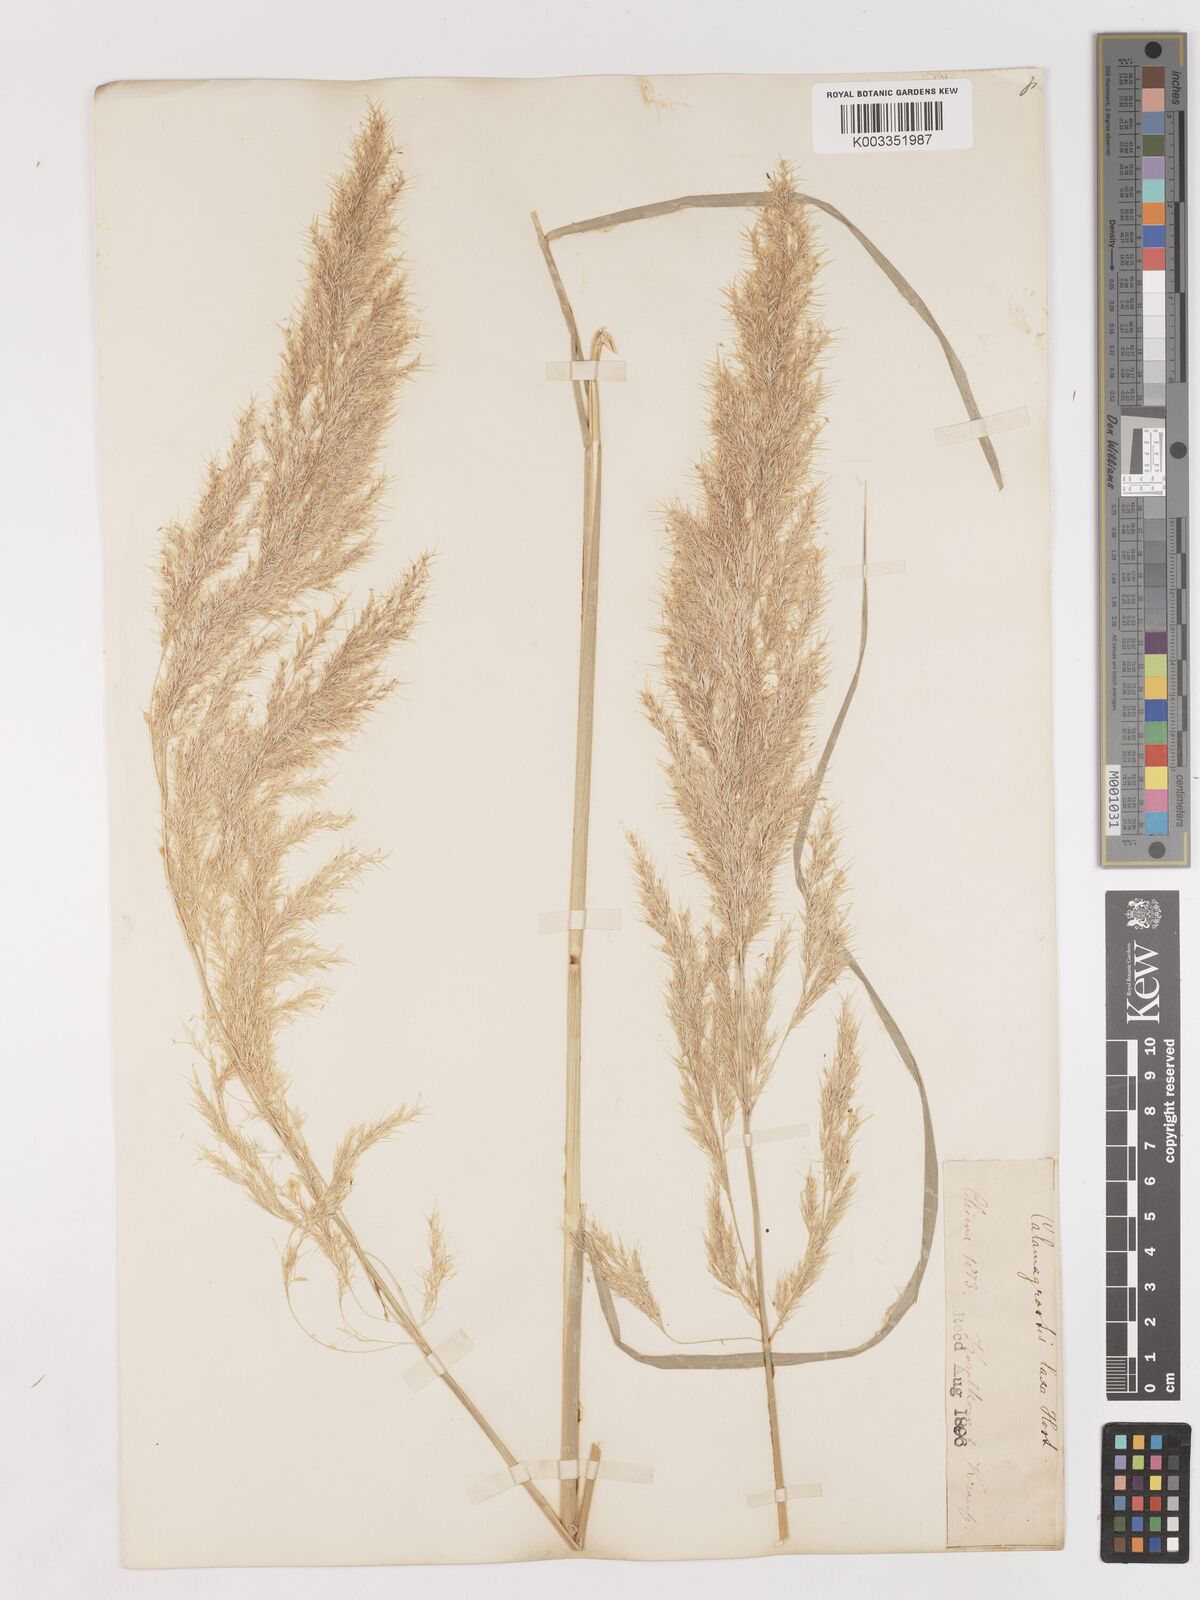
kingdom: Plantae
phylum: Tracheophyta
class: Liliopsida
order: Poales
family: Poaceae
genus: Calamagrostis
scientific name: Calamagrostis pseudophragmites
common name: Coastal small-reed
